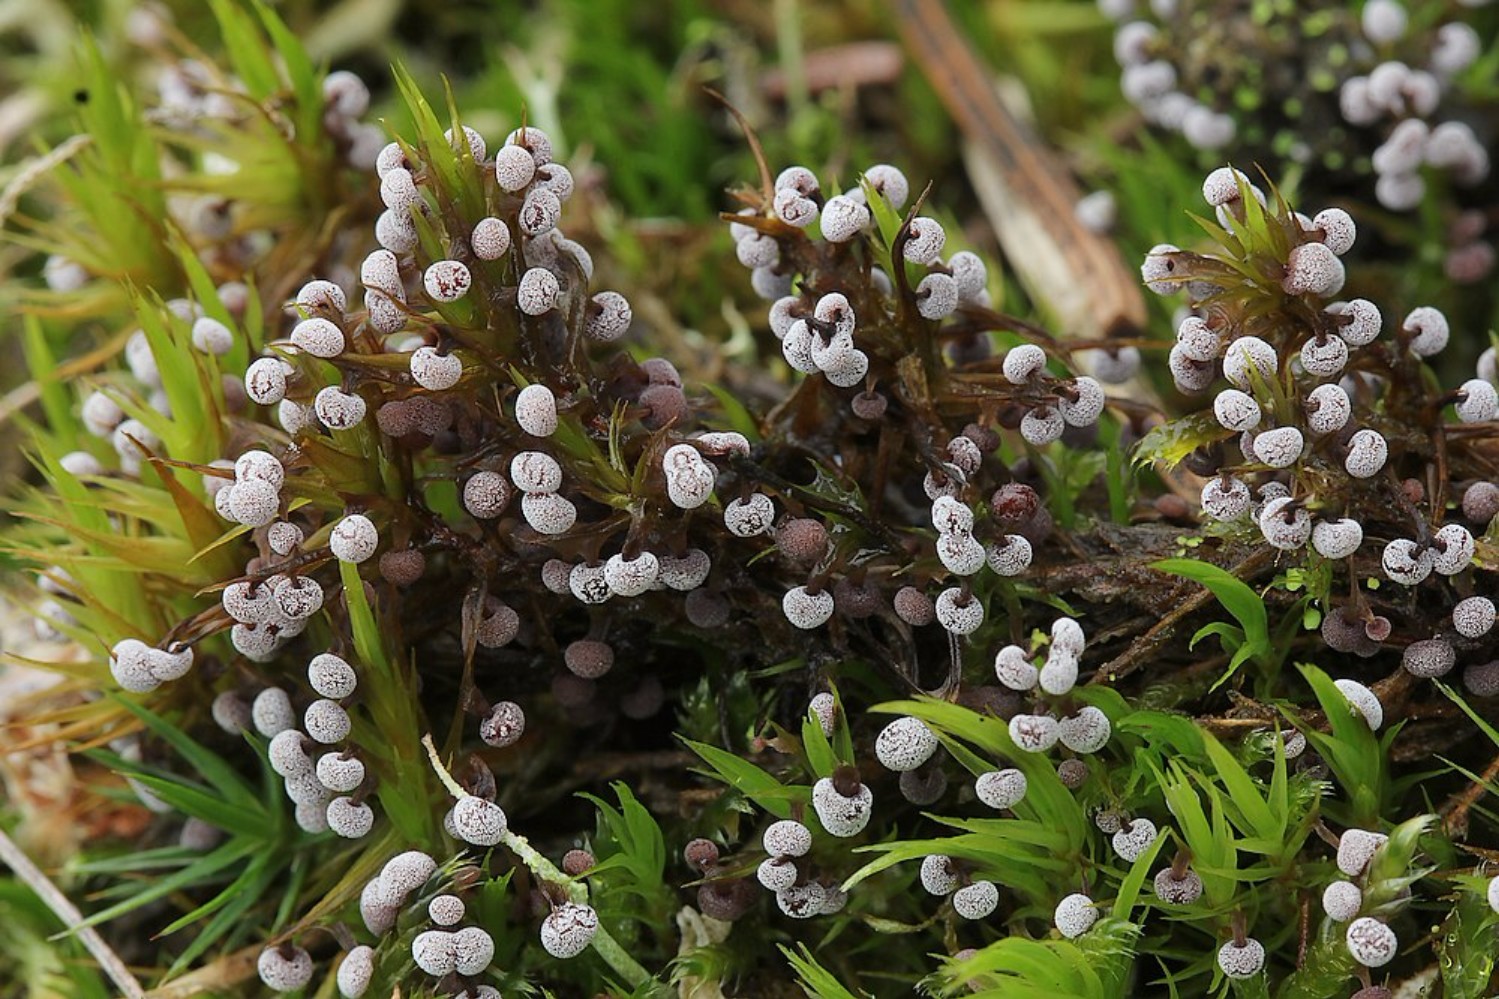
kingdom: Protozoa
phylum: Mycetozoa
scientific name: Mycetozoa
